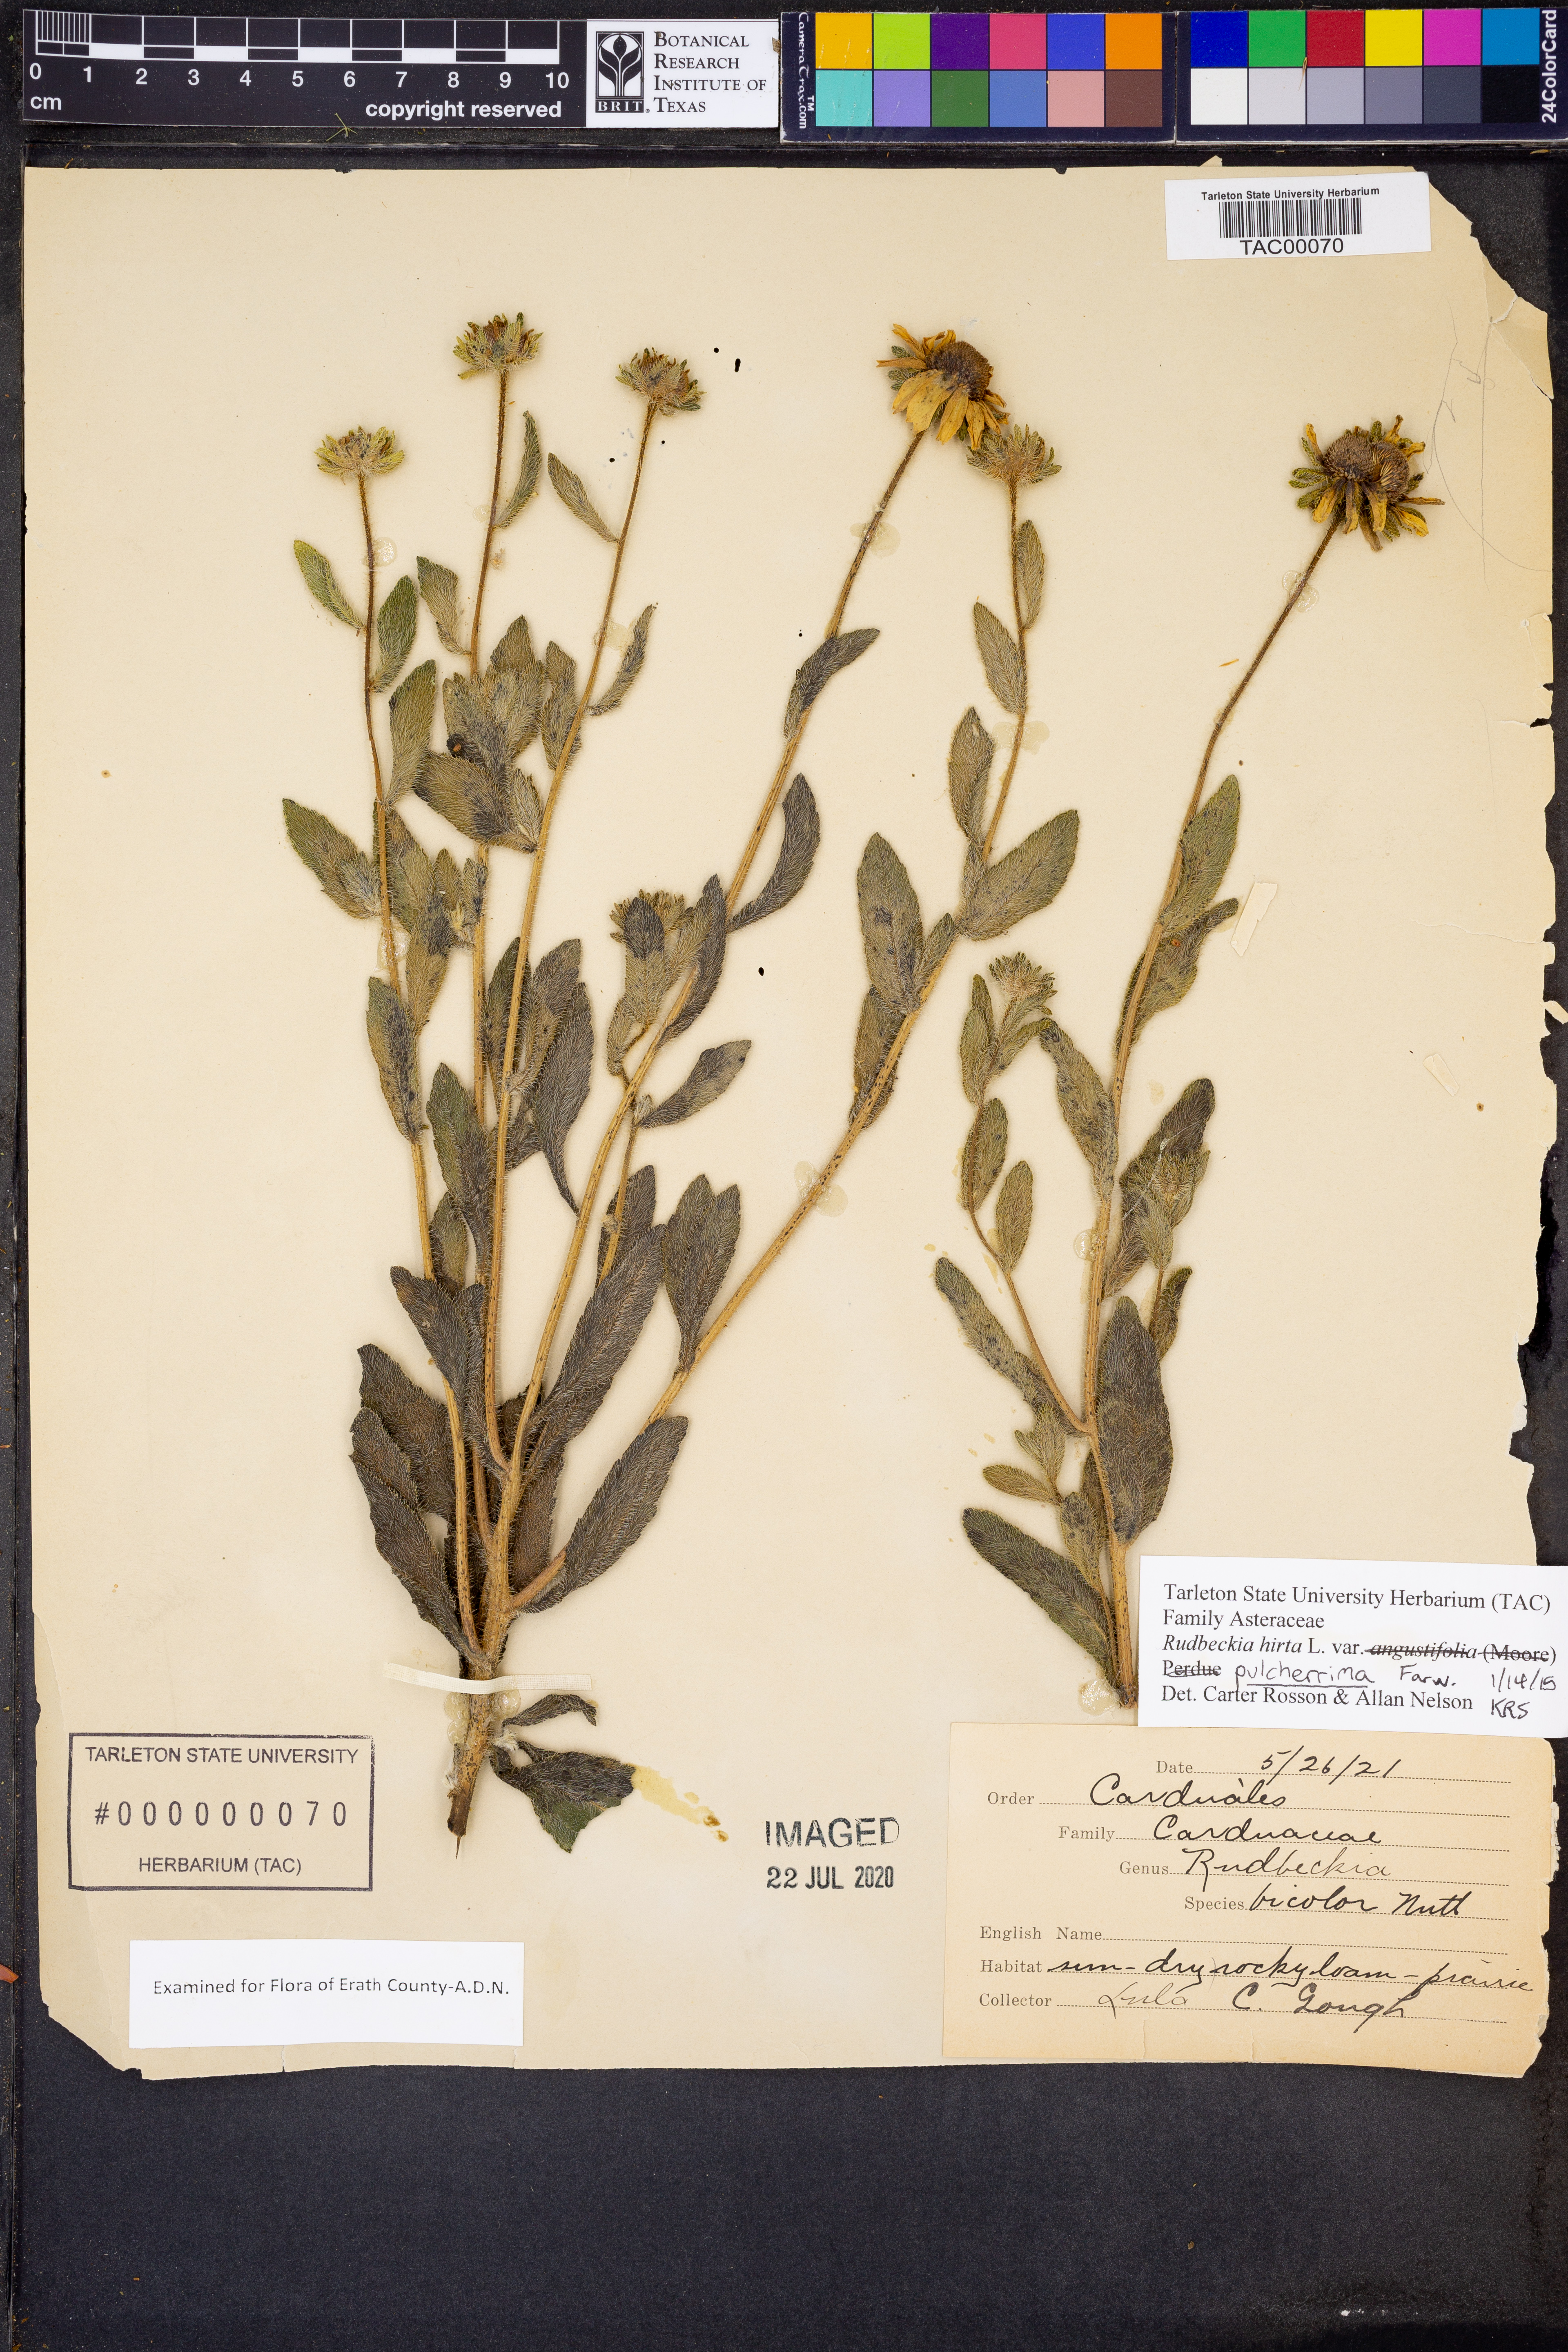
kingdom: Plantae
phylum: Tracheophyta
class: Magnoliopsida
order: Asterales
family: Asteraceae
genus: Rudbeckia
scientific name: Rudbeckia hirta
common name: Black-eyed-susan
